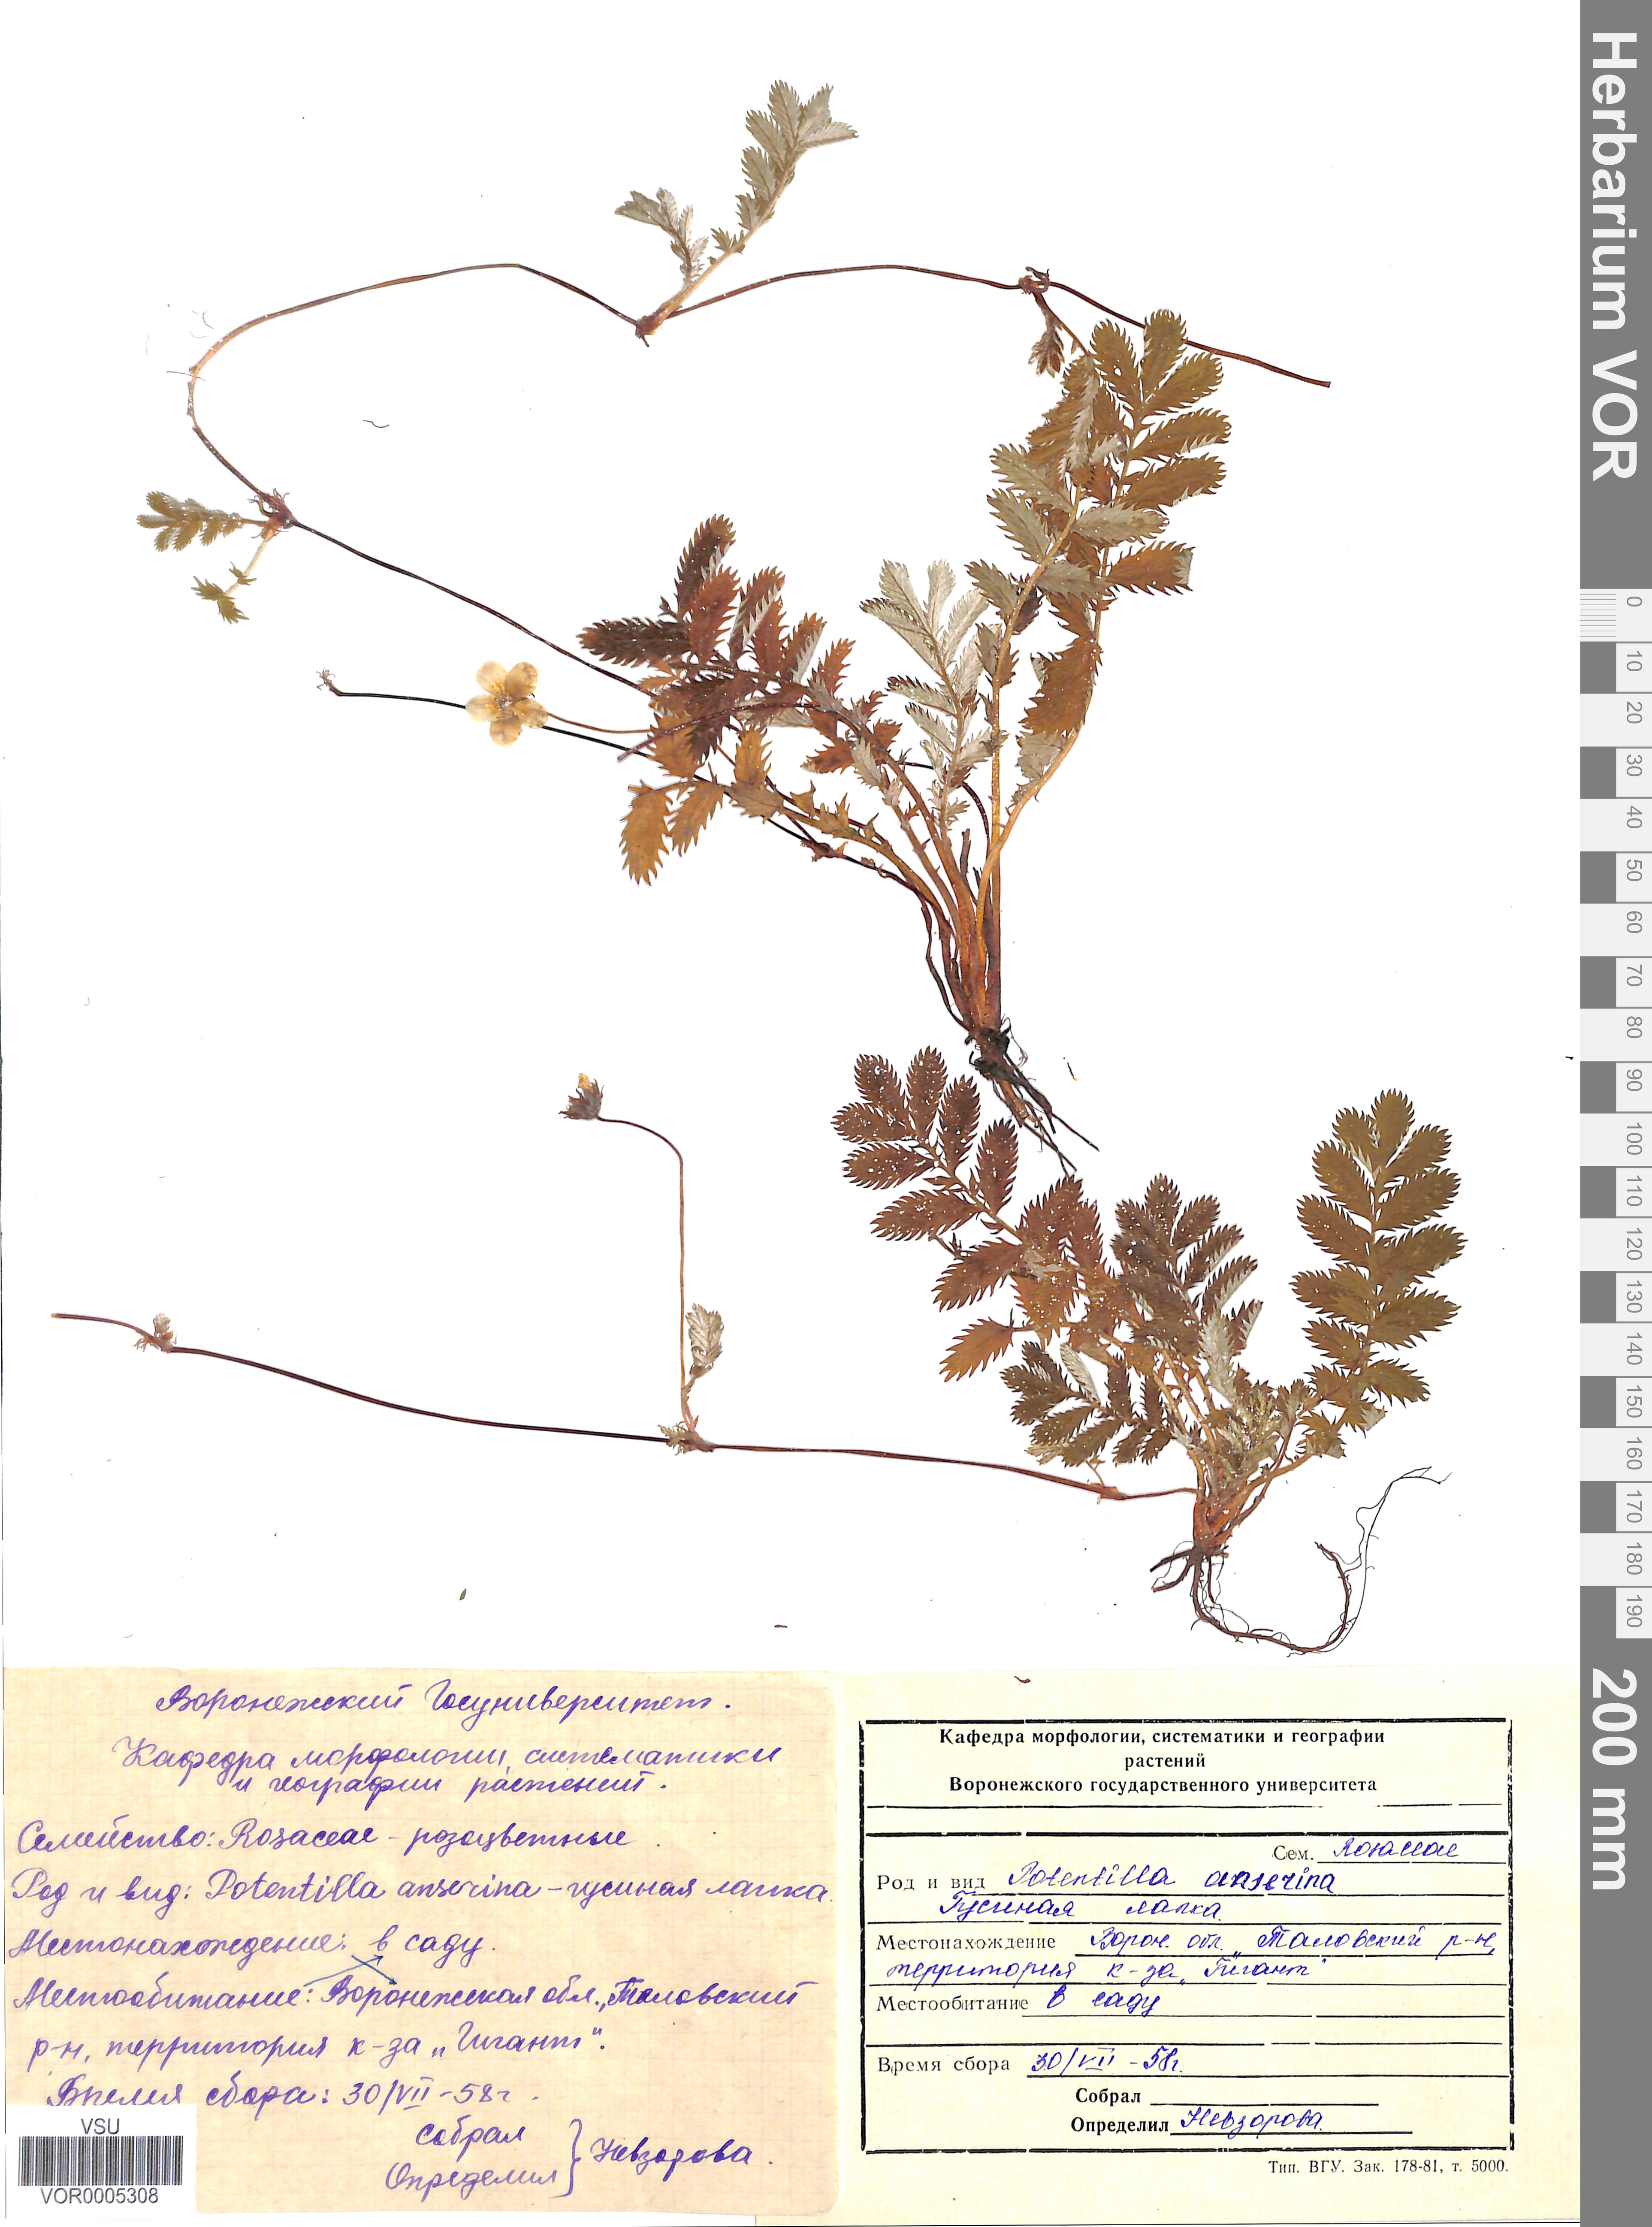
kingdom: Plantae
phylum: Tracheophyta
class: Magnoliopsida
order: Rosales
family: Rosaceae
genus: Argentina
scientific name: Argentina anserina
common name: Common silverweed
